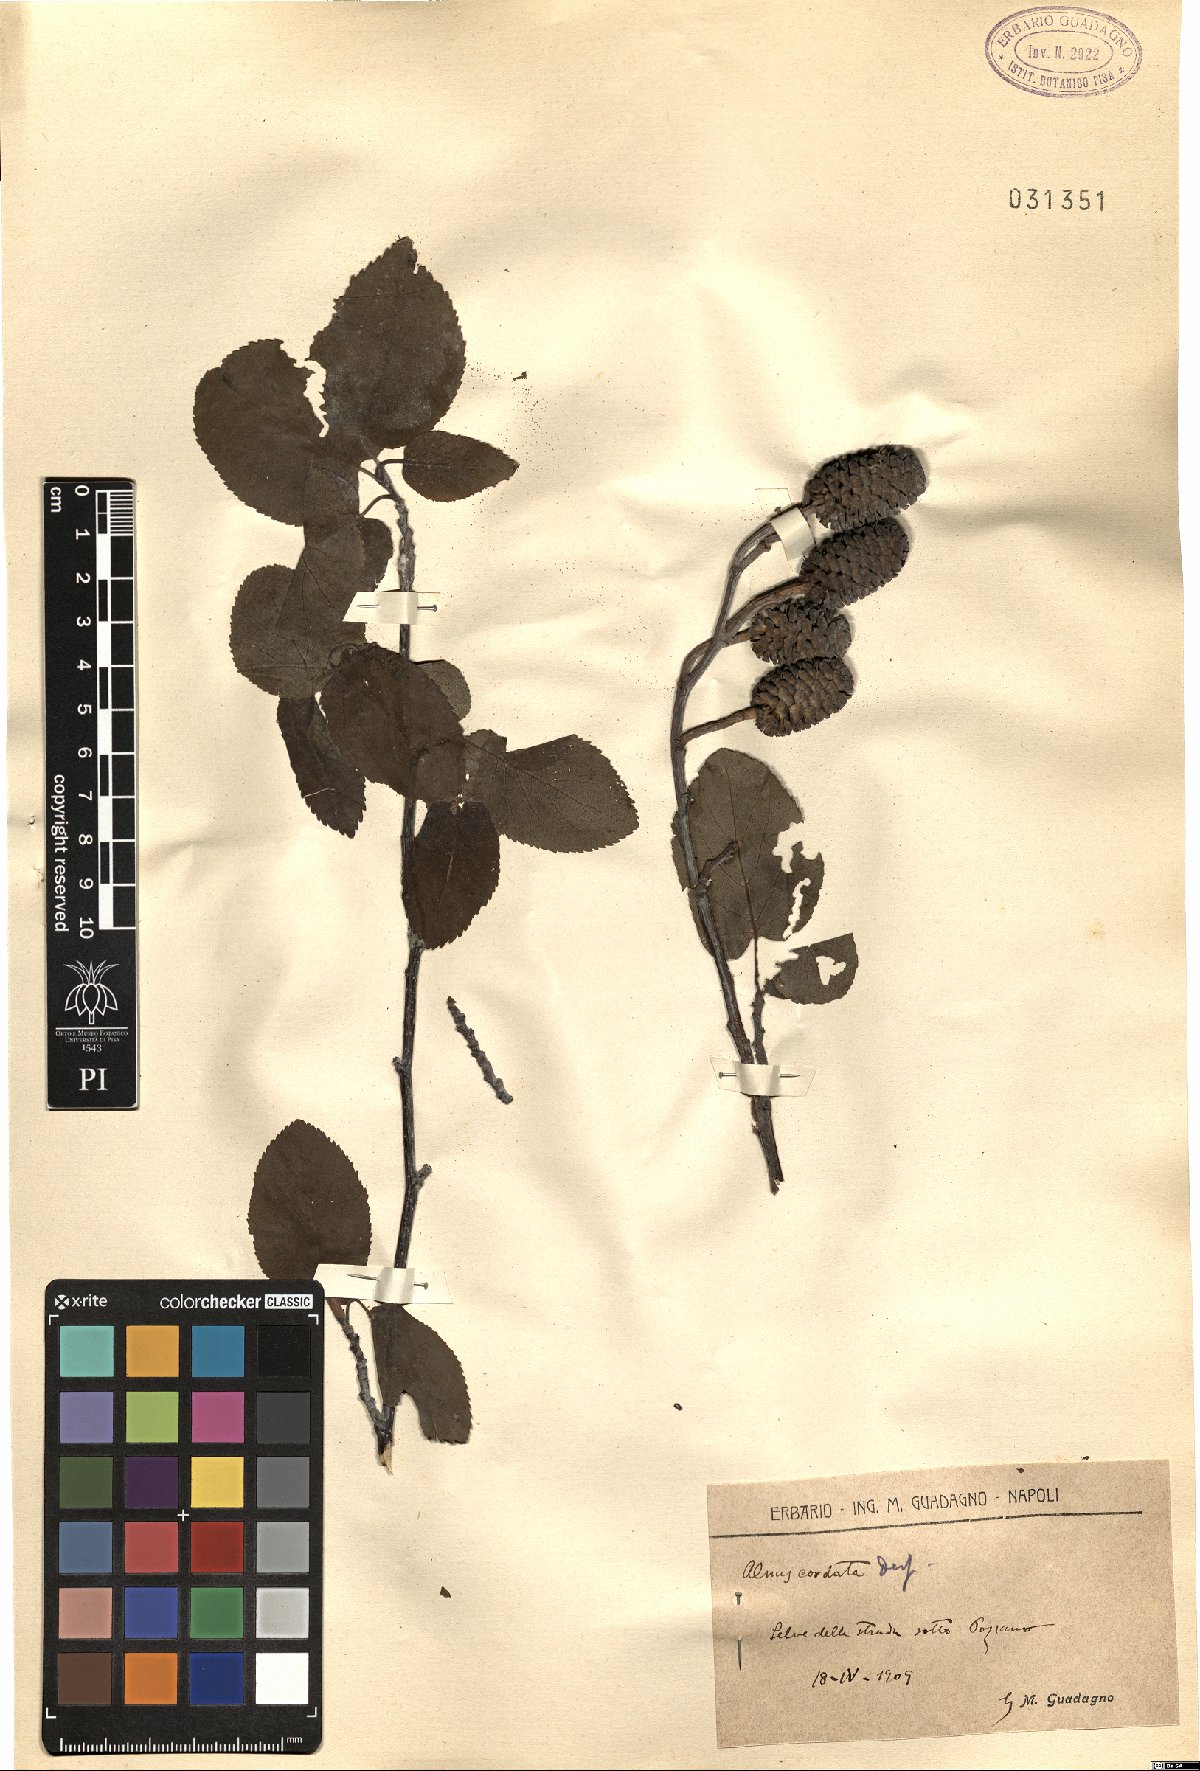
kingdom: Plantae
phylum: Tracheophyta
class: Magnoliopsida
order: Fagales
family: Betulaceae
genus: Alnus
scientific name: Alnus cordata
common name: Italian alder
